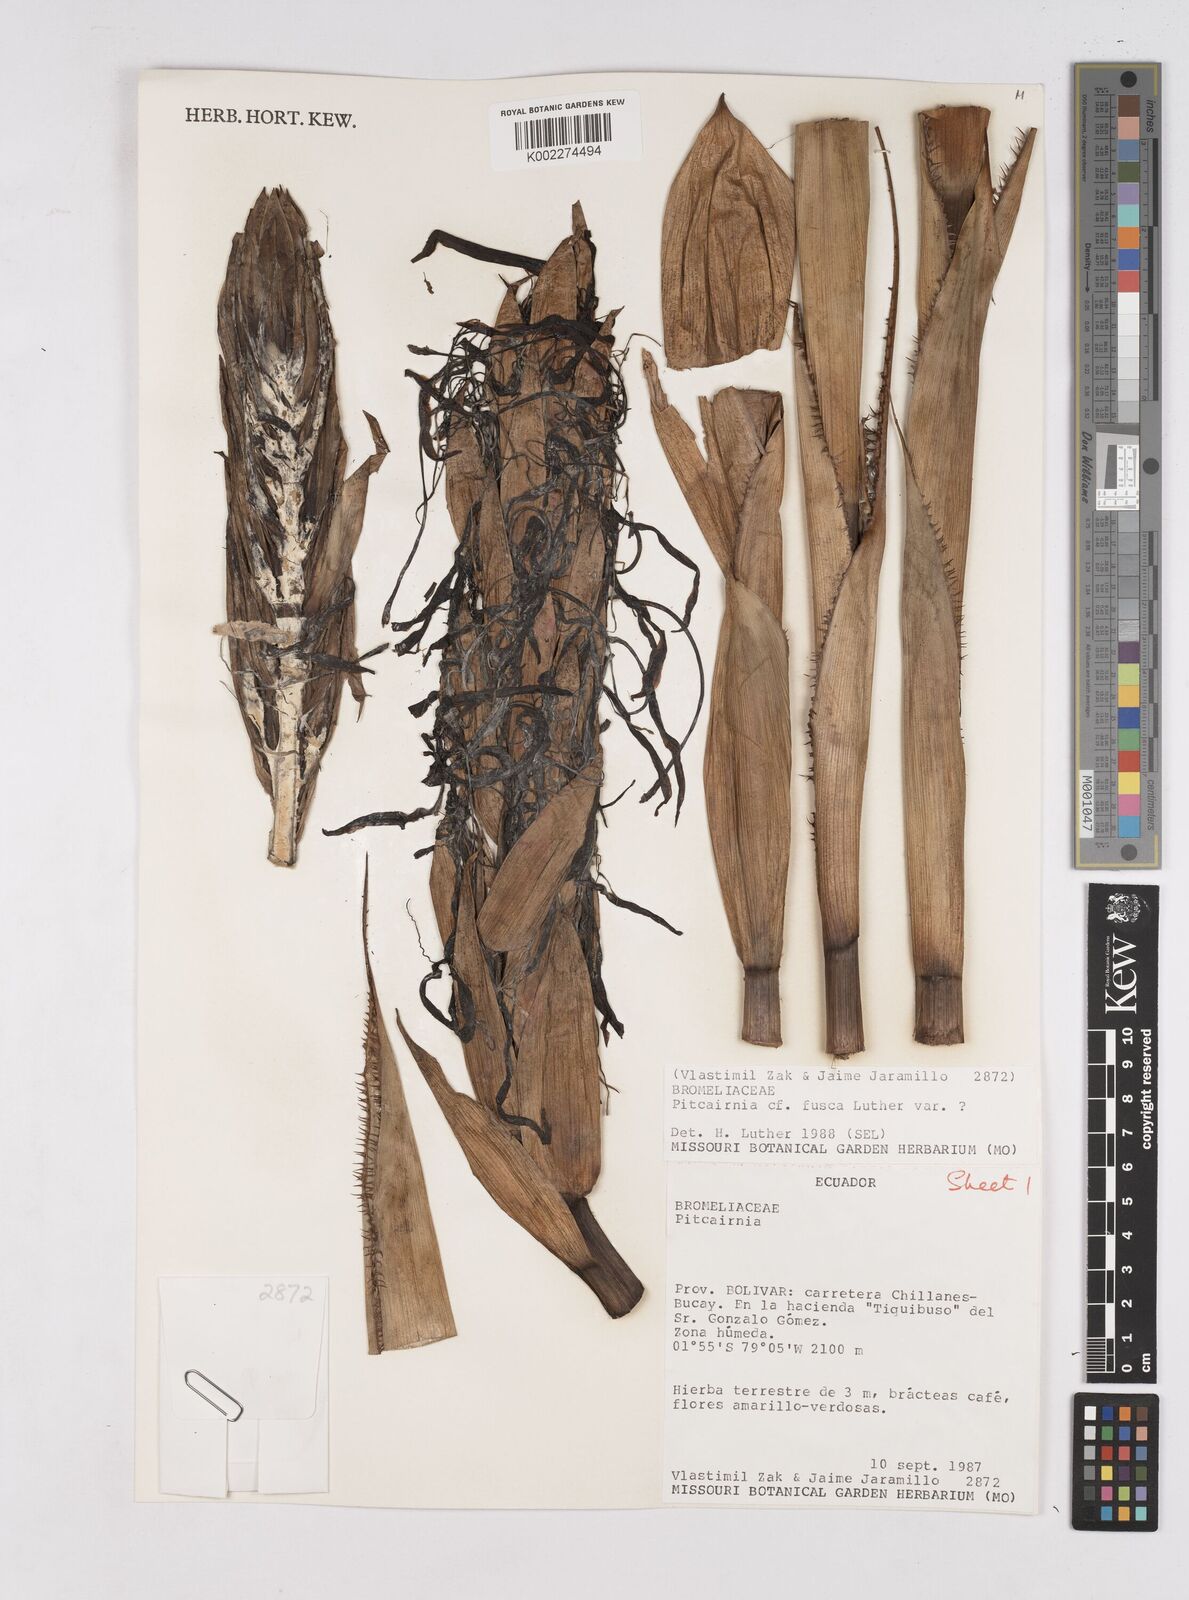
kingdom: Plantae
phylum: Tracheophyta
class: Liliopsida
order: Poales
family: Bromeliaceae
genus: Pitcairnia
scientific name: Pitcairnia fusca
